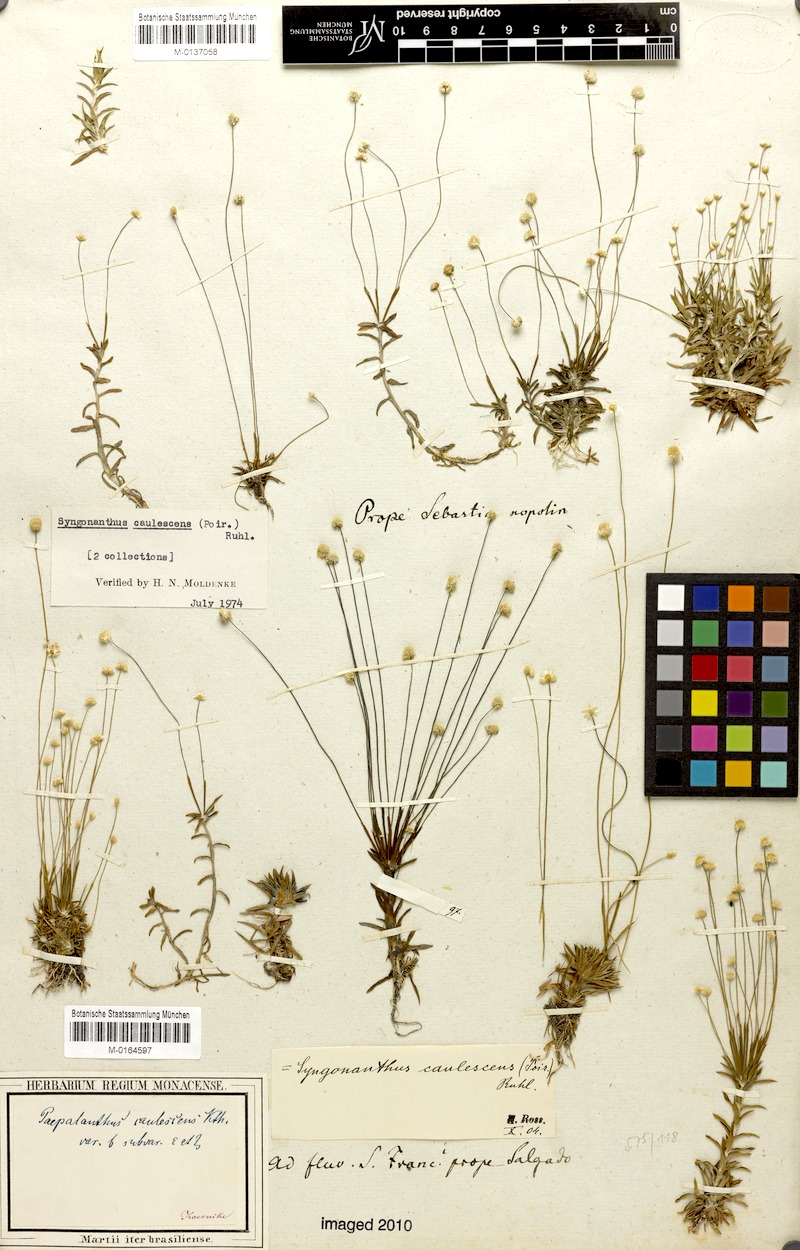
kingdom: Plantae
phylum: Tracheophyta
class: Liliopsida
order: Poales
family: Eriocaulaceae
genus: Syngonanthus
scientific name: Syngonanthus caulescens
